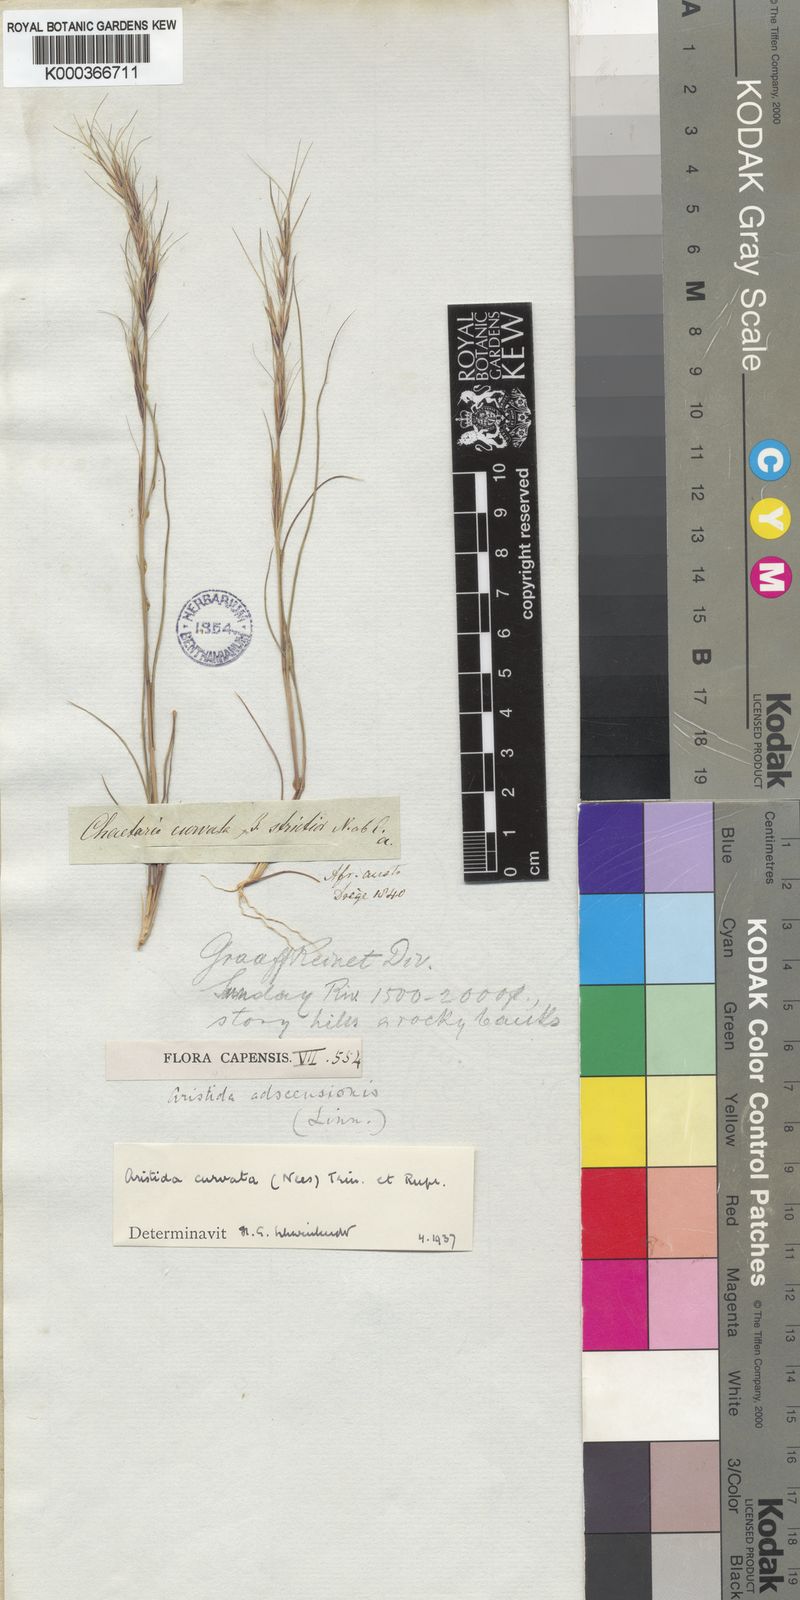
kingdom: Plantae
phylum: Tracheophyta
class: Liliopsida
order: Poales
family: Poaceae
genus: Aristida
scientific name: Aristida adscensionis
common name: Sixweeks threeawn
